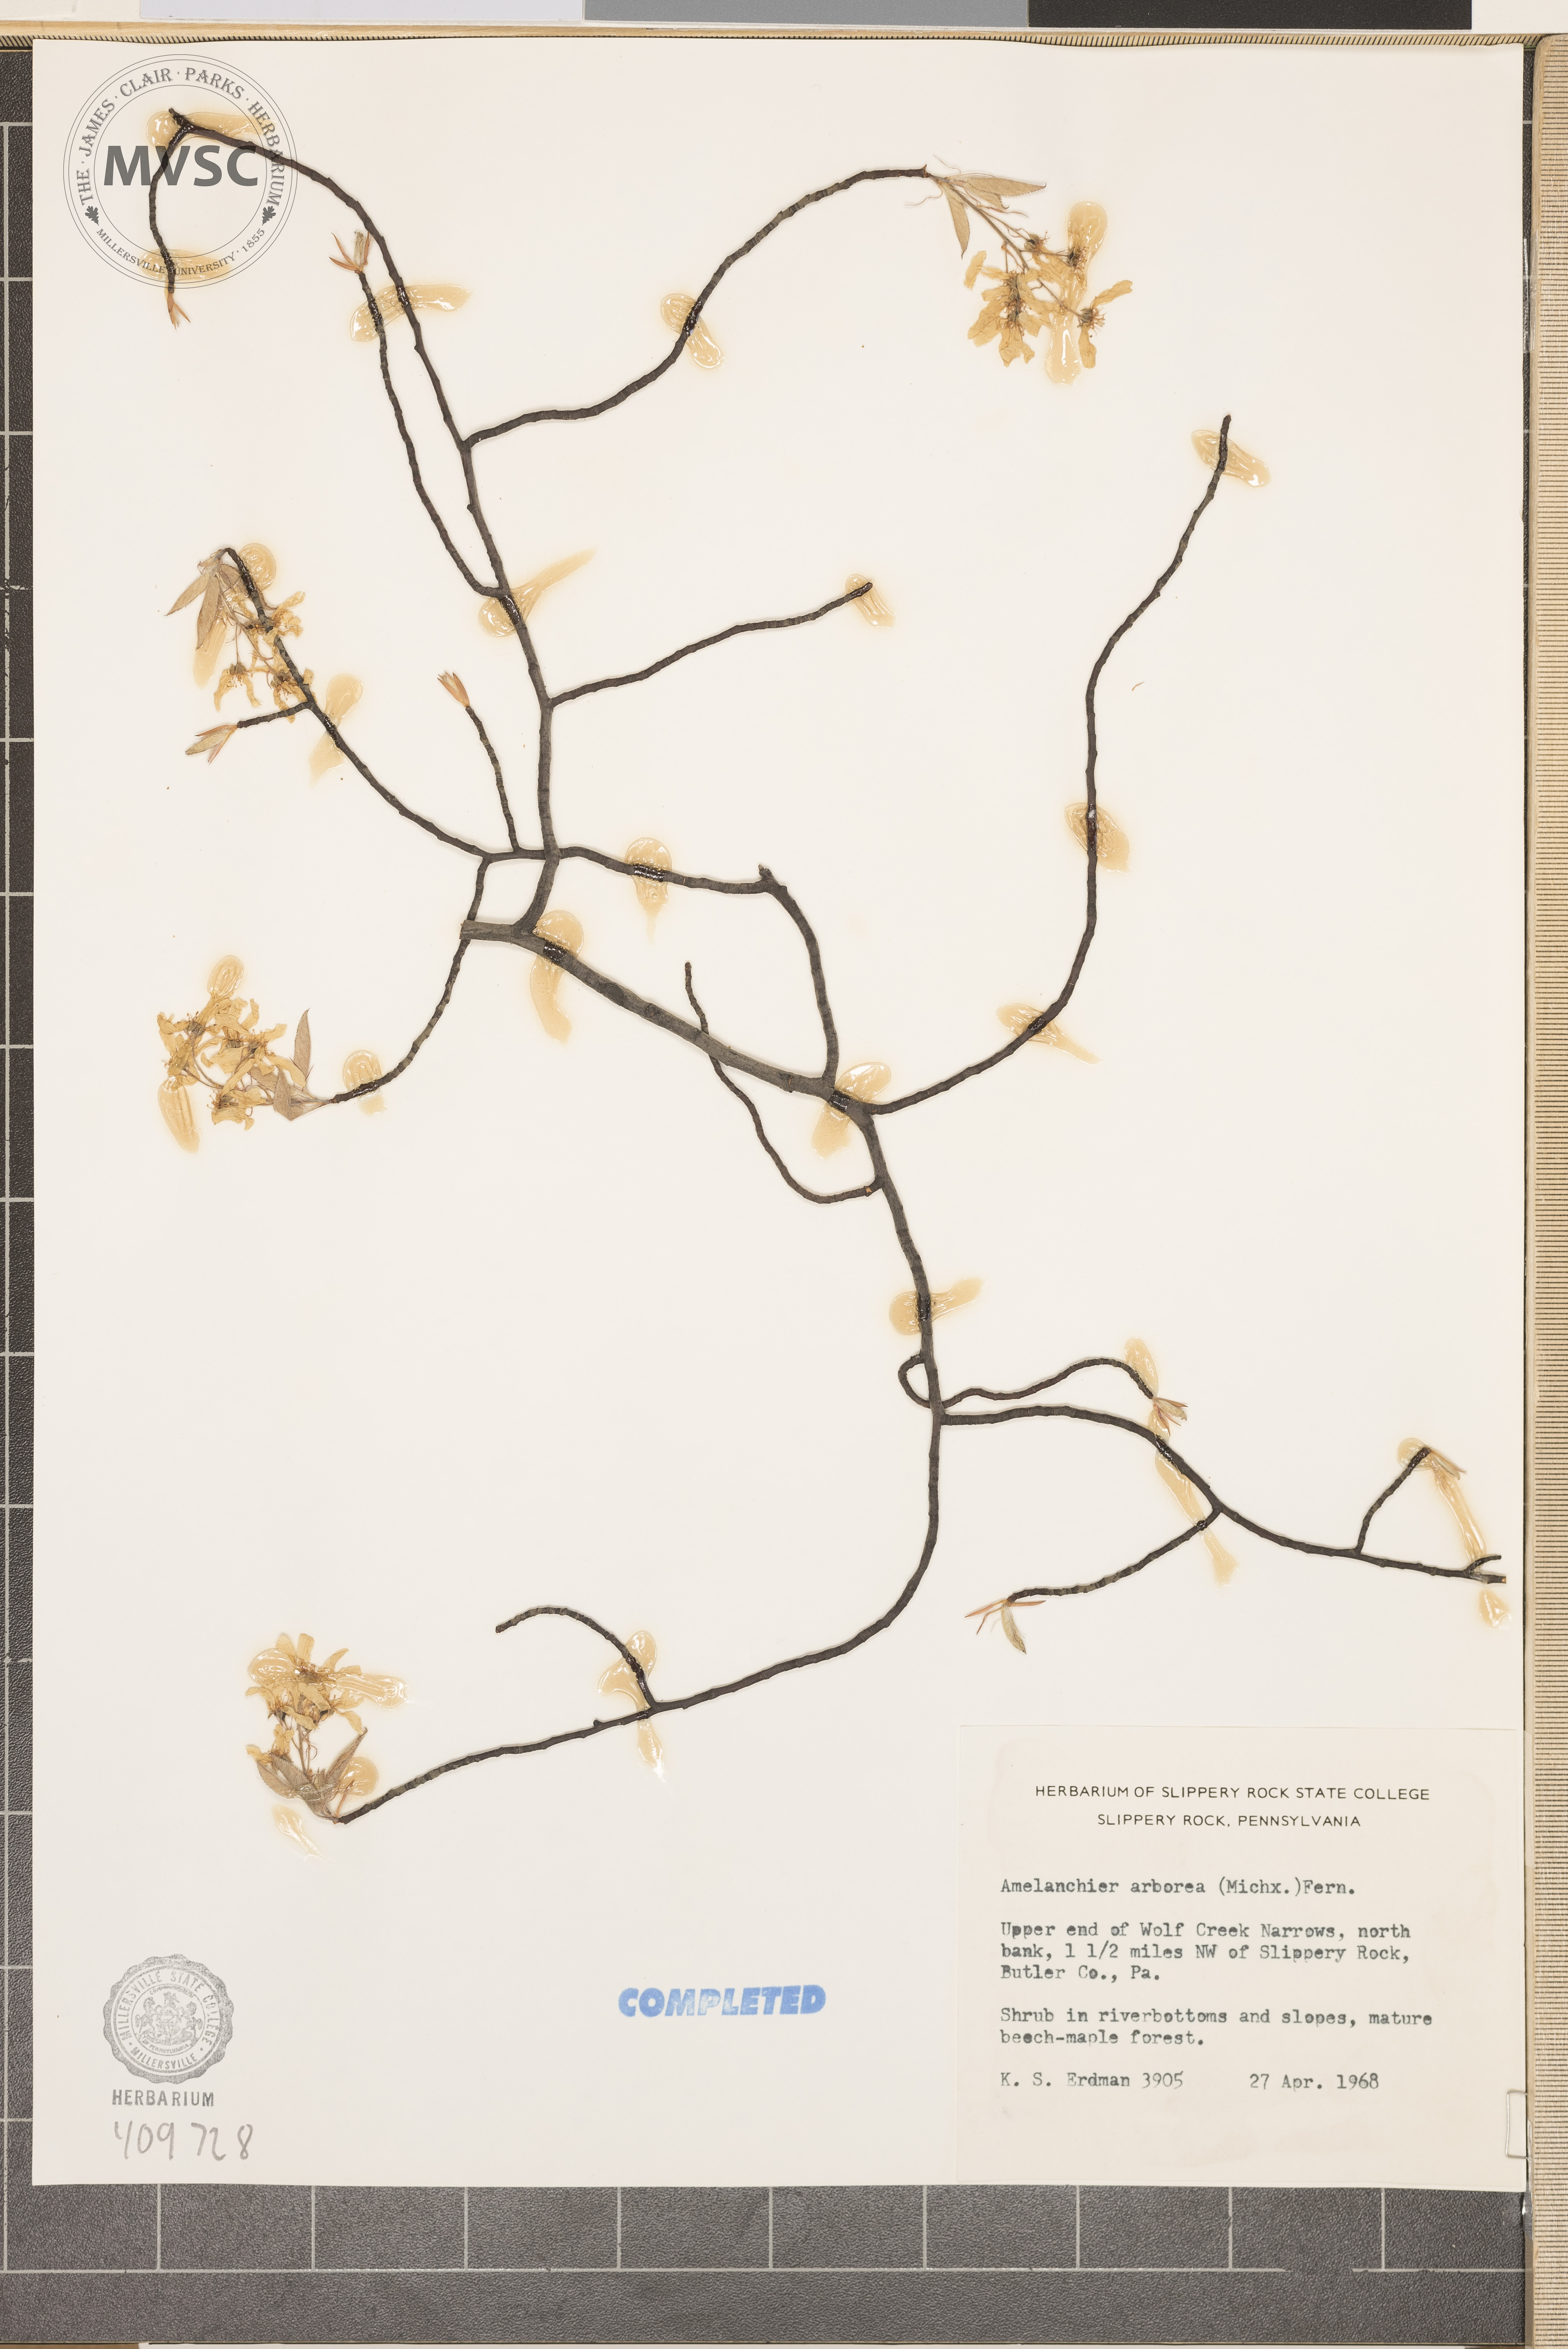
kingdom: Plantae
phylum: Tracheophyta
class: Magnoliopsida
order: Rosales
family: Rosaceae
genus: Amelanchier
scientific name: Amelanchier arborea
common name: Downy serviceberry
